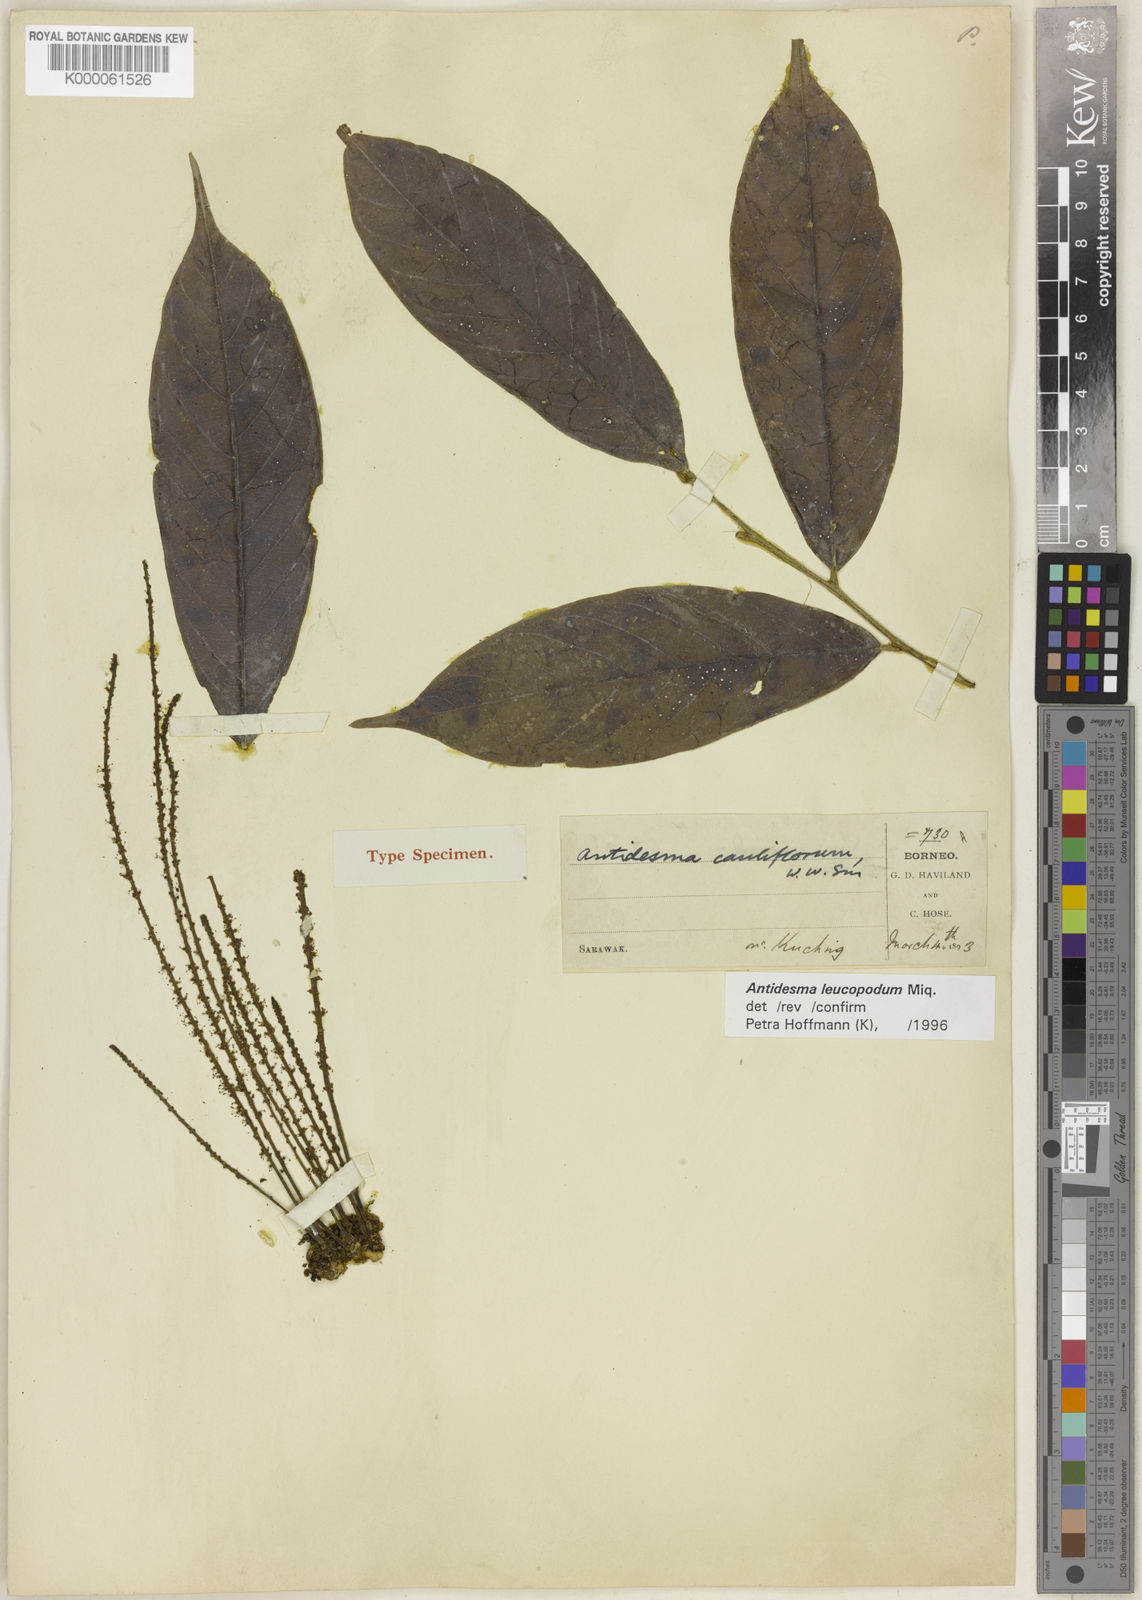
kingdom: Plantae
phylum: Tracheophyta
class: Magnoliopsida
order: Malpighiales
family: Phyllanthaceae
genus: Antidesma
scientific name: Antidesma leucopodum
